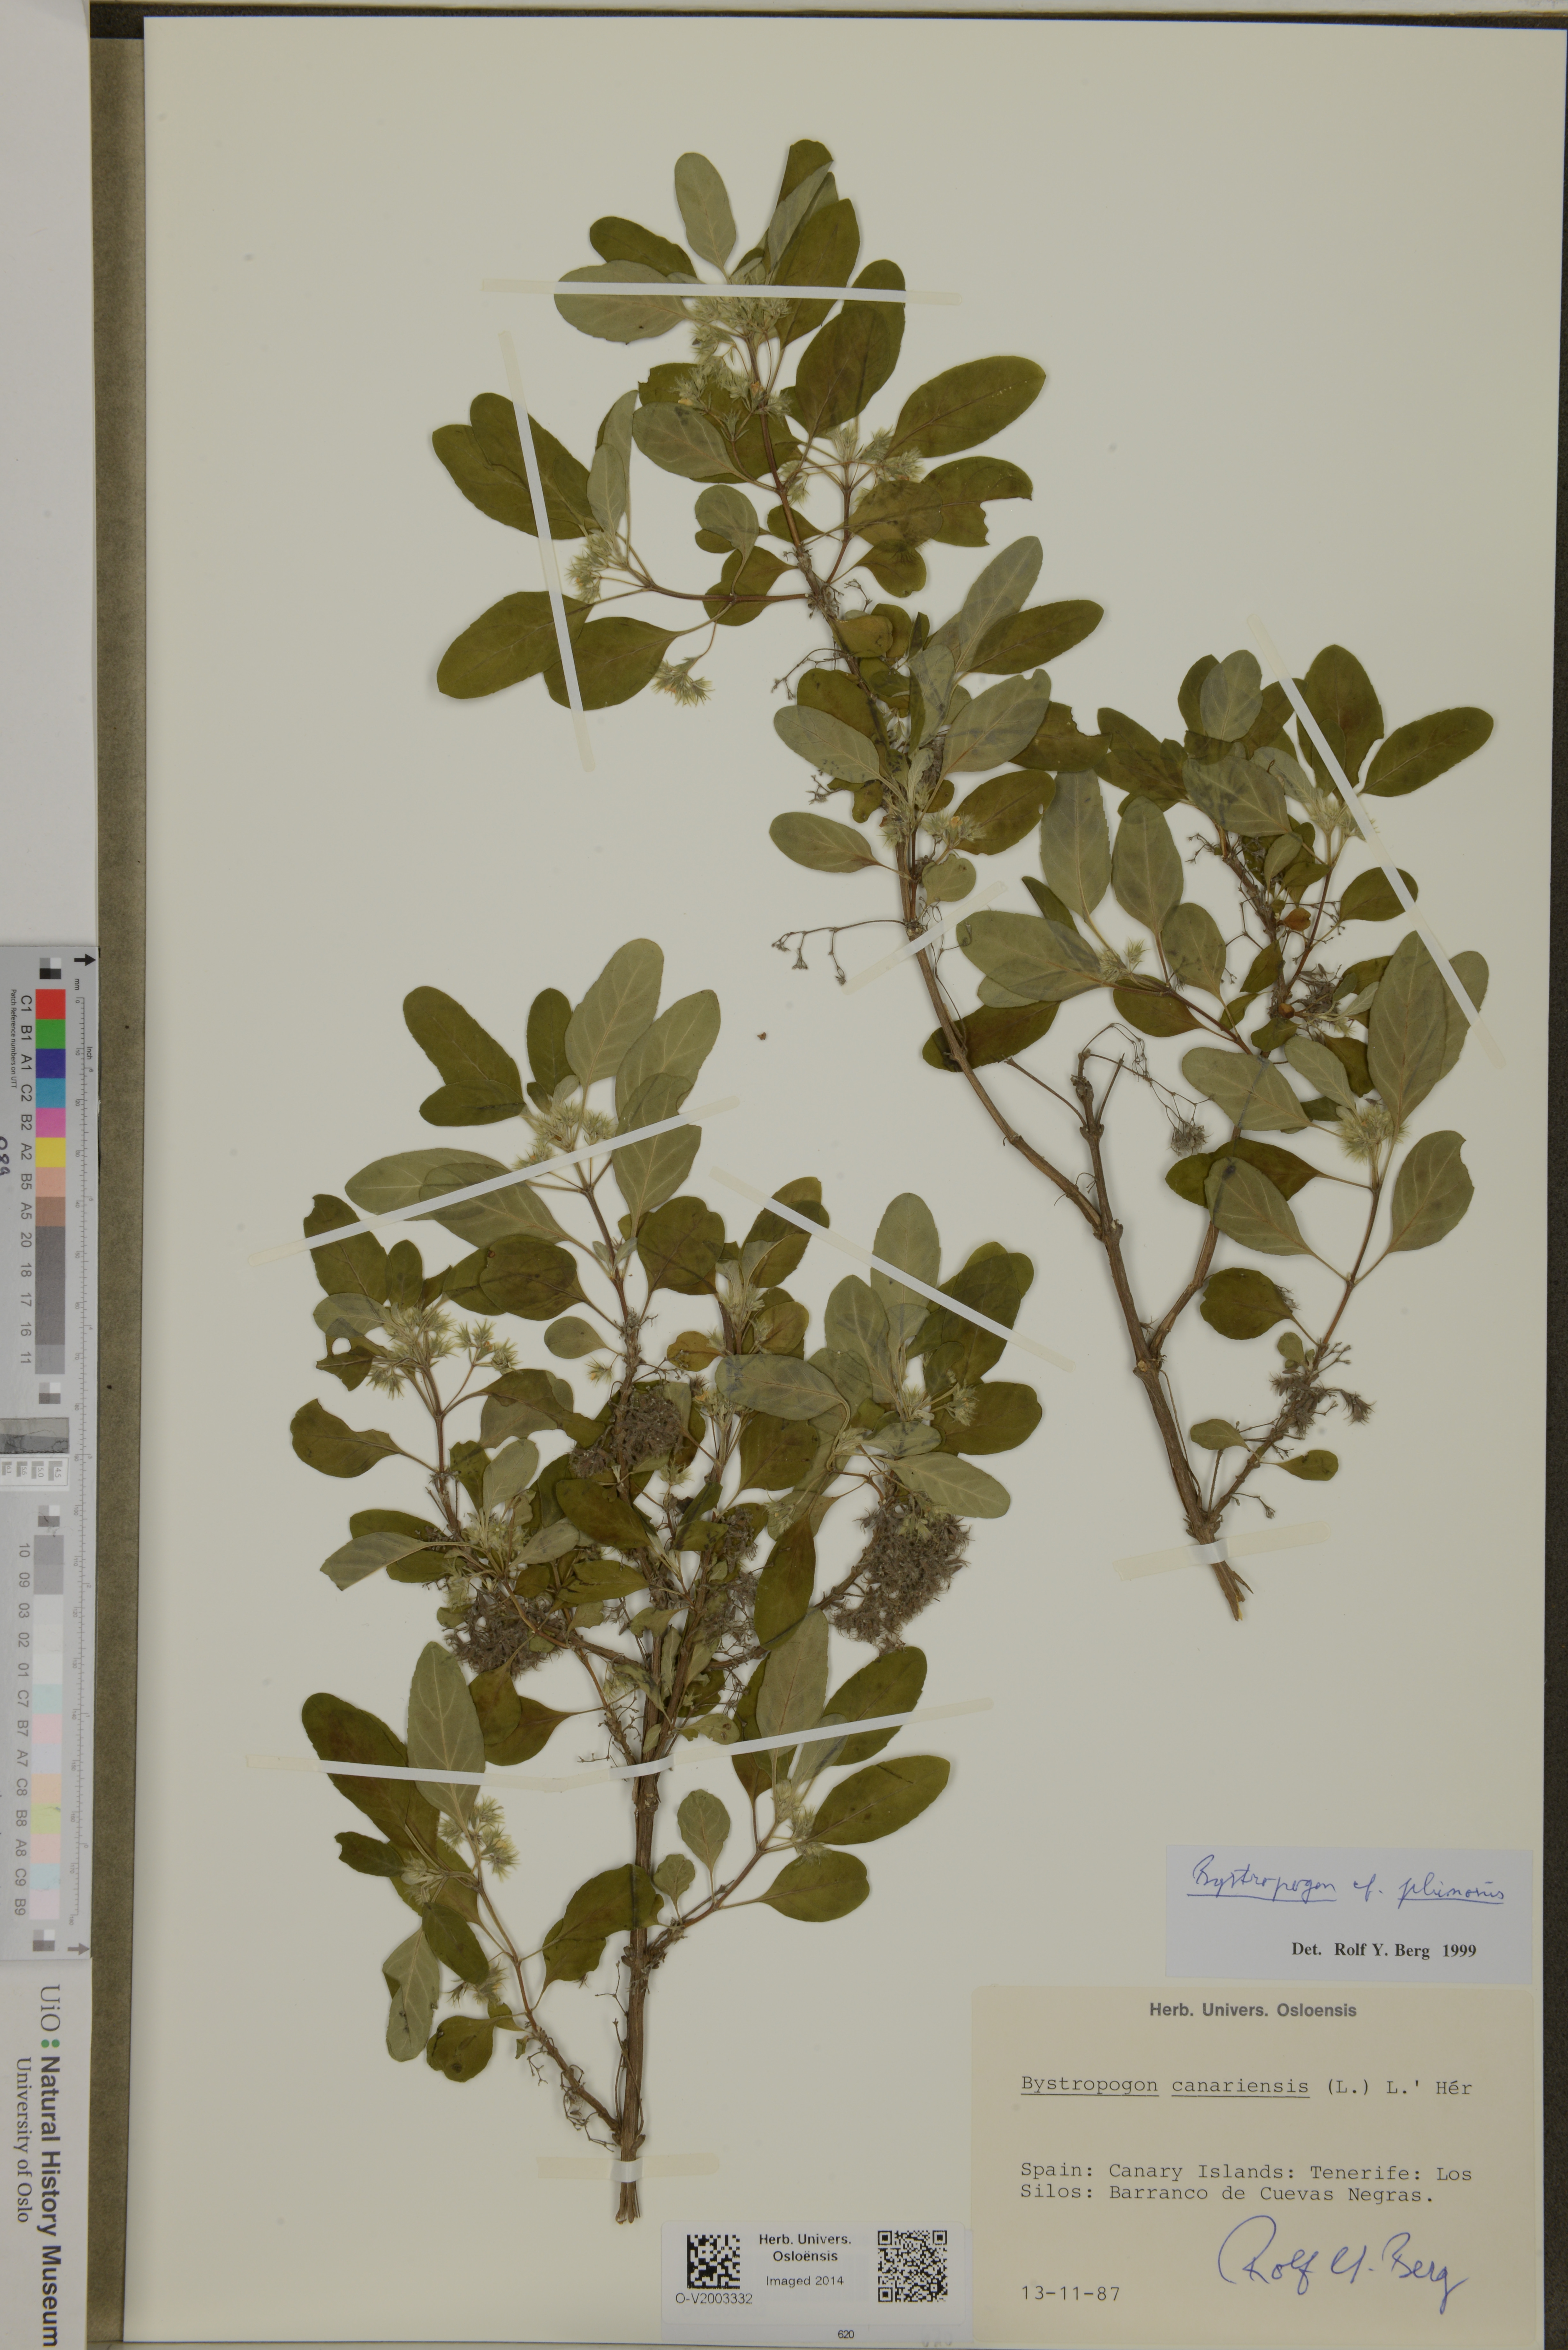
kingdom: Plantae
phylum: Tracheophyta
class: Magnoliopsida
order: Lamiales
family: Lamiaceae
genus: Bystropogon
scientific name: Bystropogon plumosus
